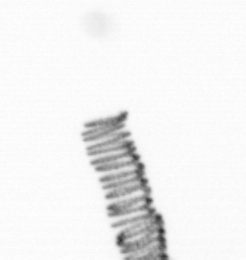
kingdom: Chromista
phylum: Ochrophyta
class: Bacillariophyceae
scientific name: Bacillariophyceae
